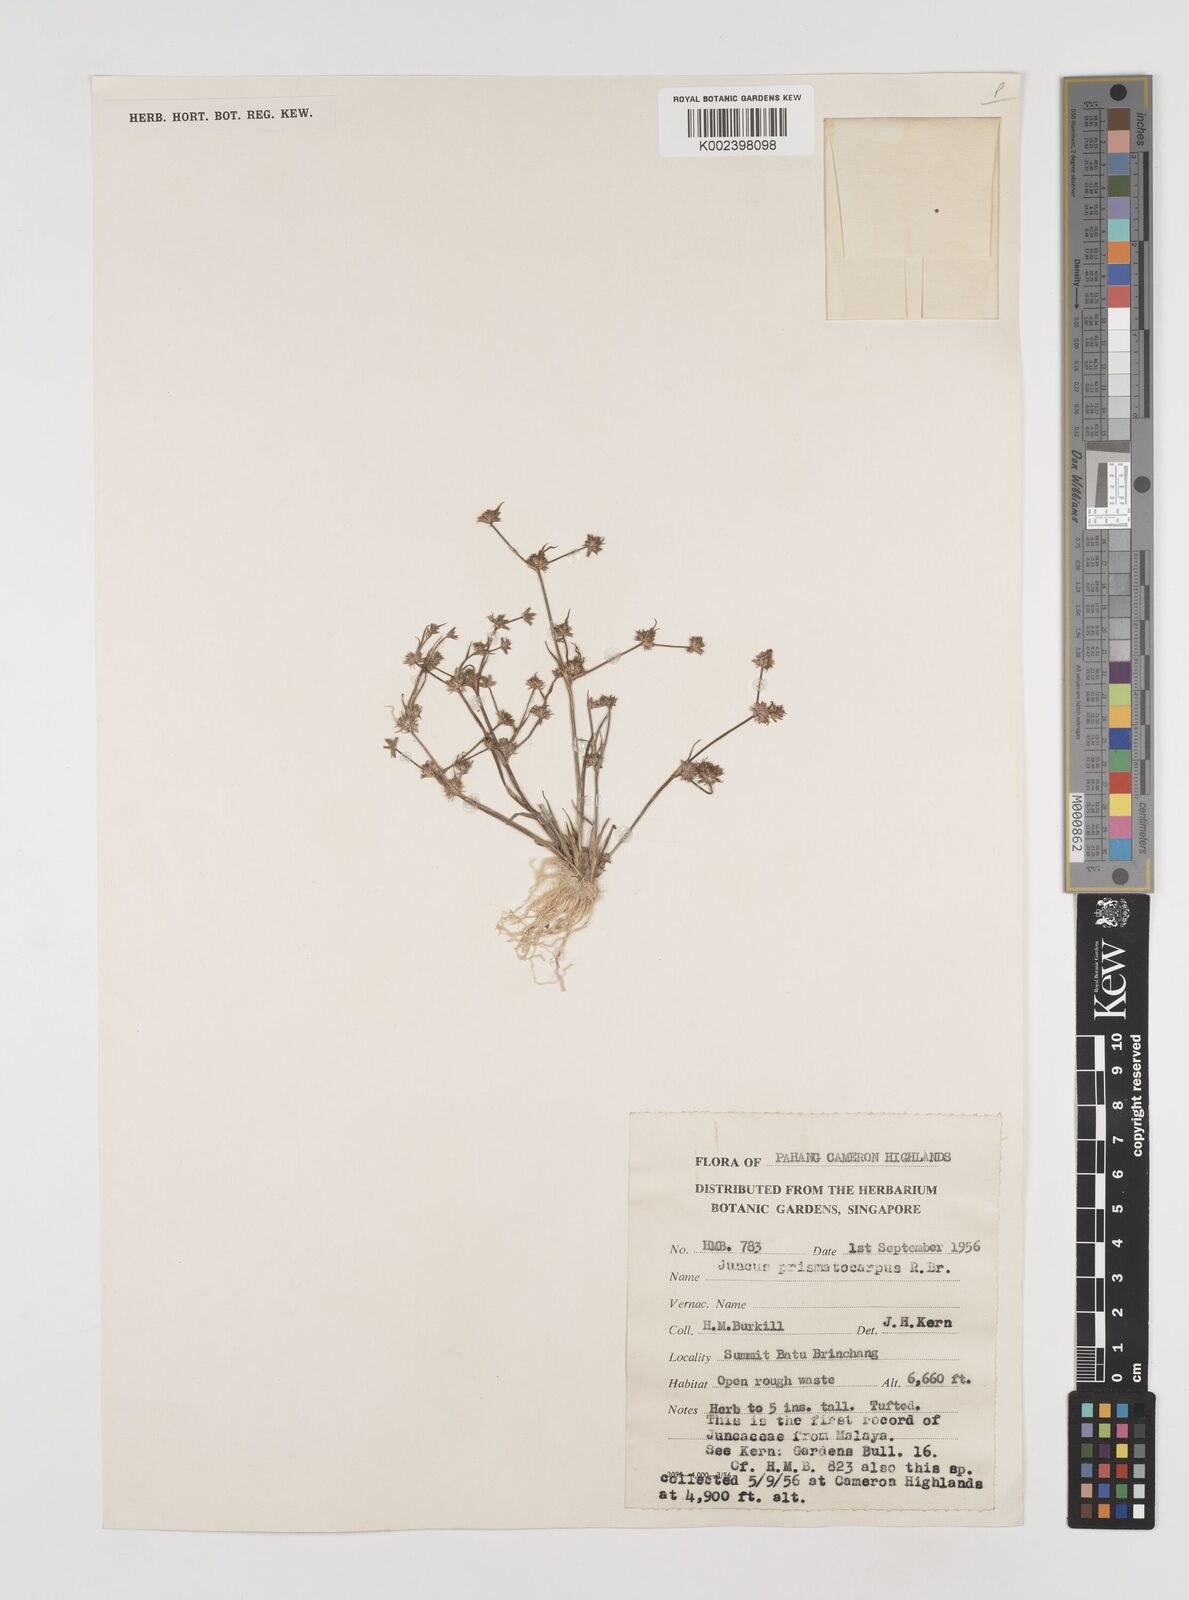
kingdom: Plantae
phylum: Tracheophyta
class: Liliopsida
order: Poales
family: Juncaceae
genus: Juncus
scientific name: Juncus prismatocarpus
